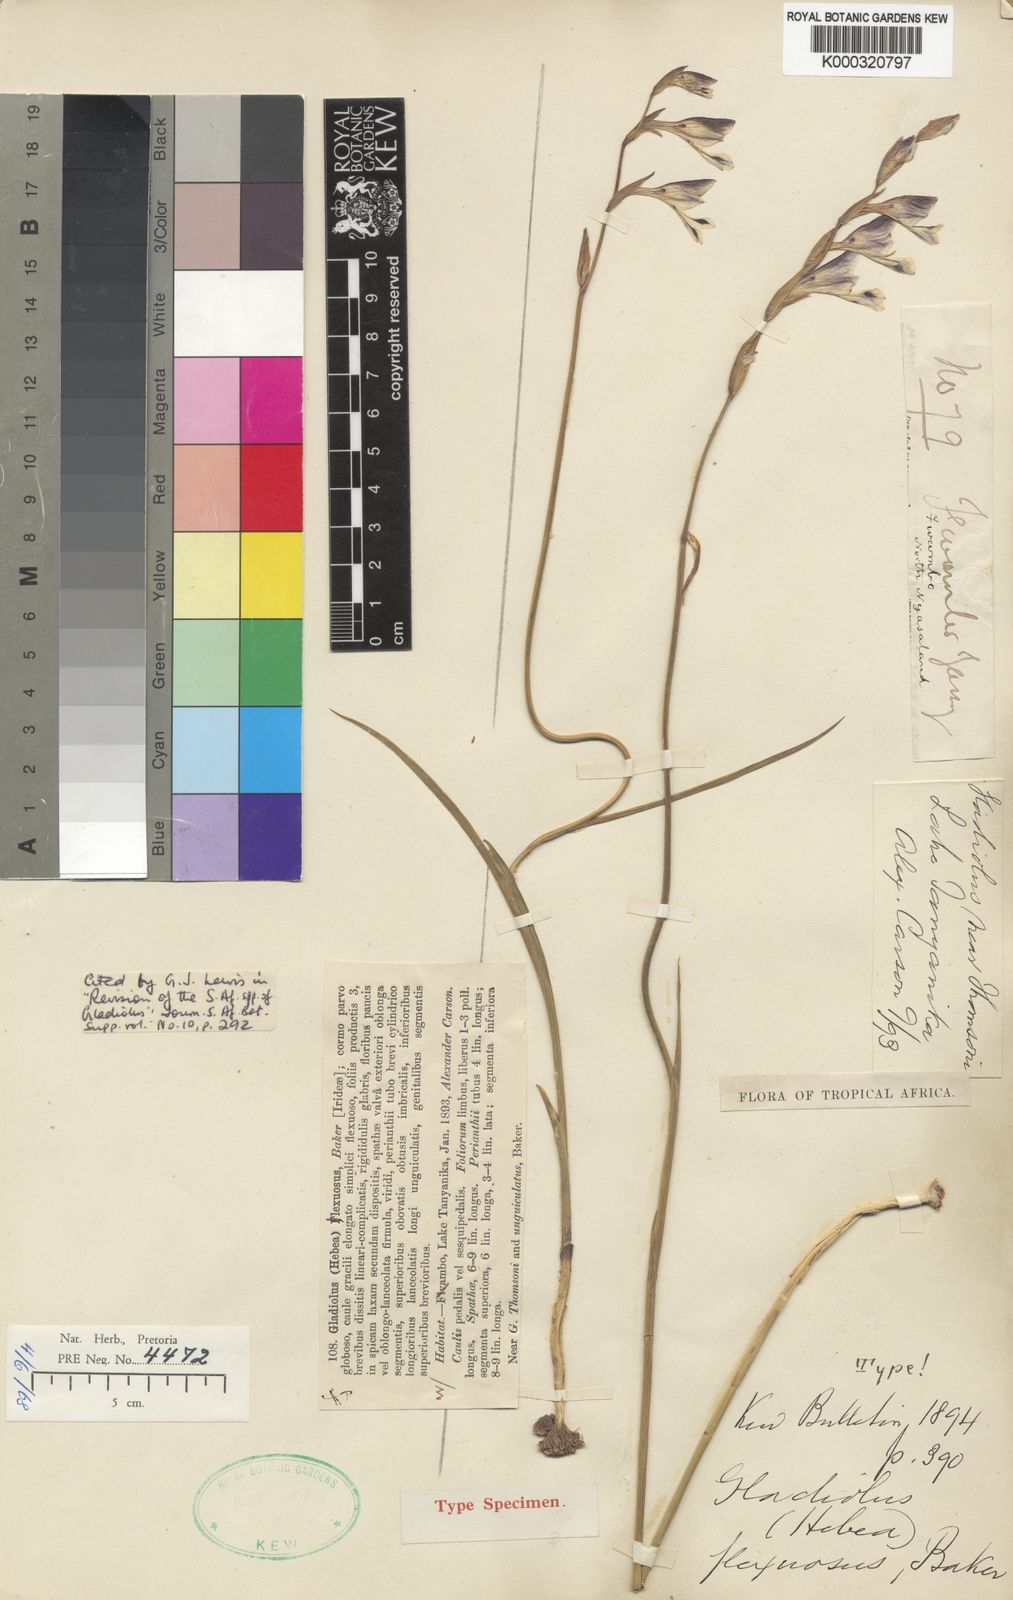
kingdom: Plantae
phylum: Tracheophyta
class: Liliopsida
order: Asparagales
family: Iridaceae
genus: Gladiolus
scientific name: Gladiolus atropurpureus
